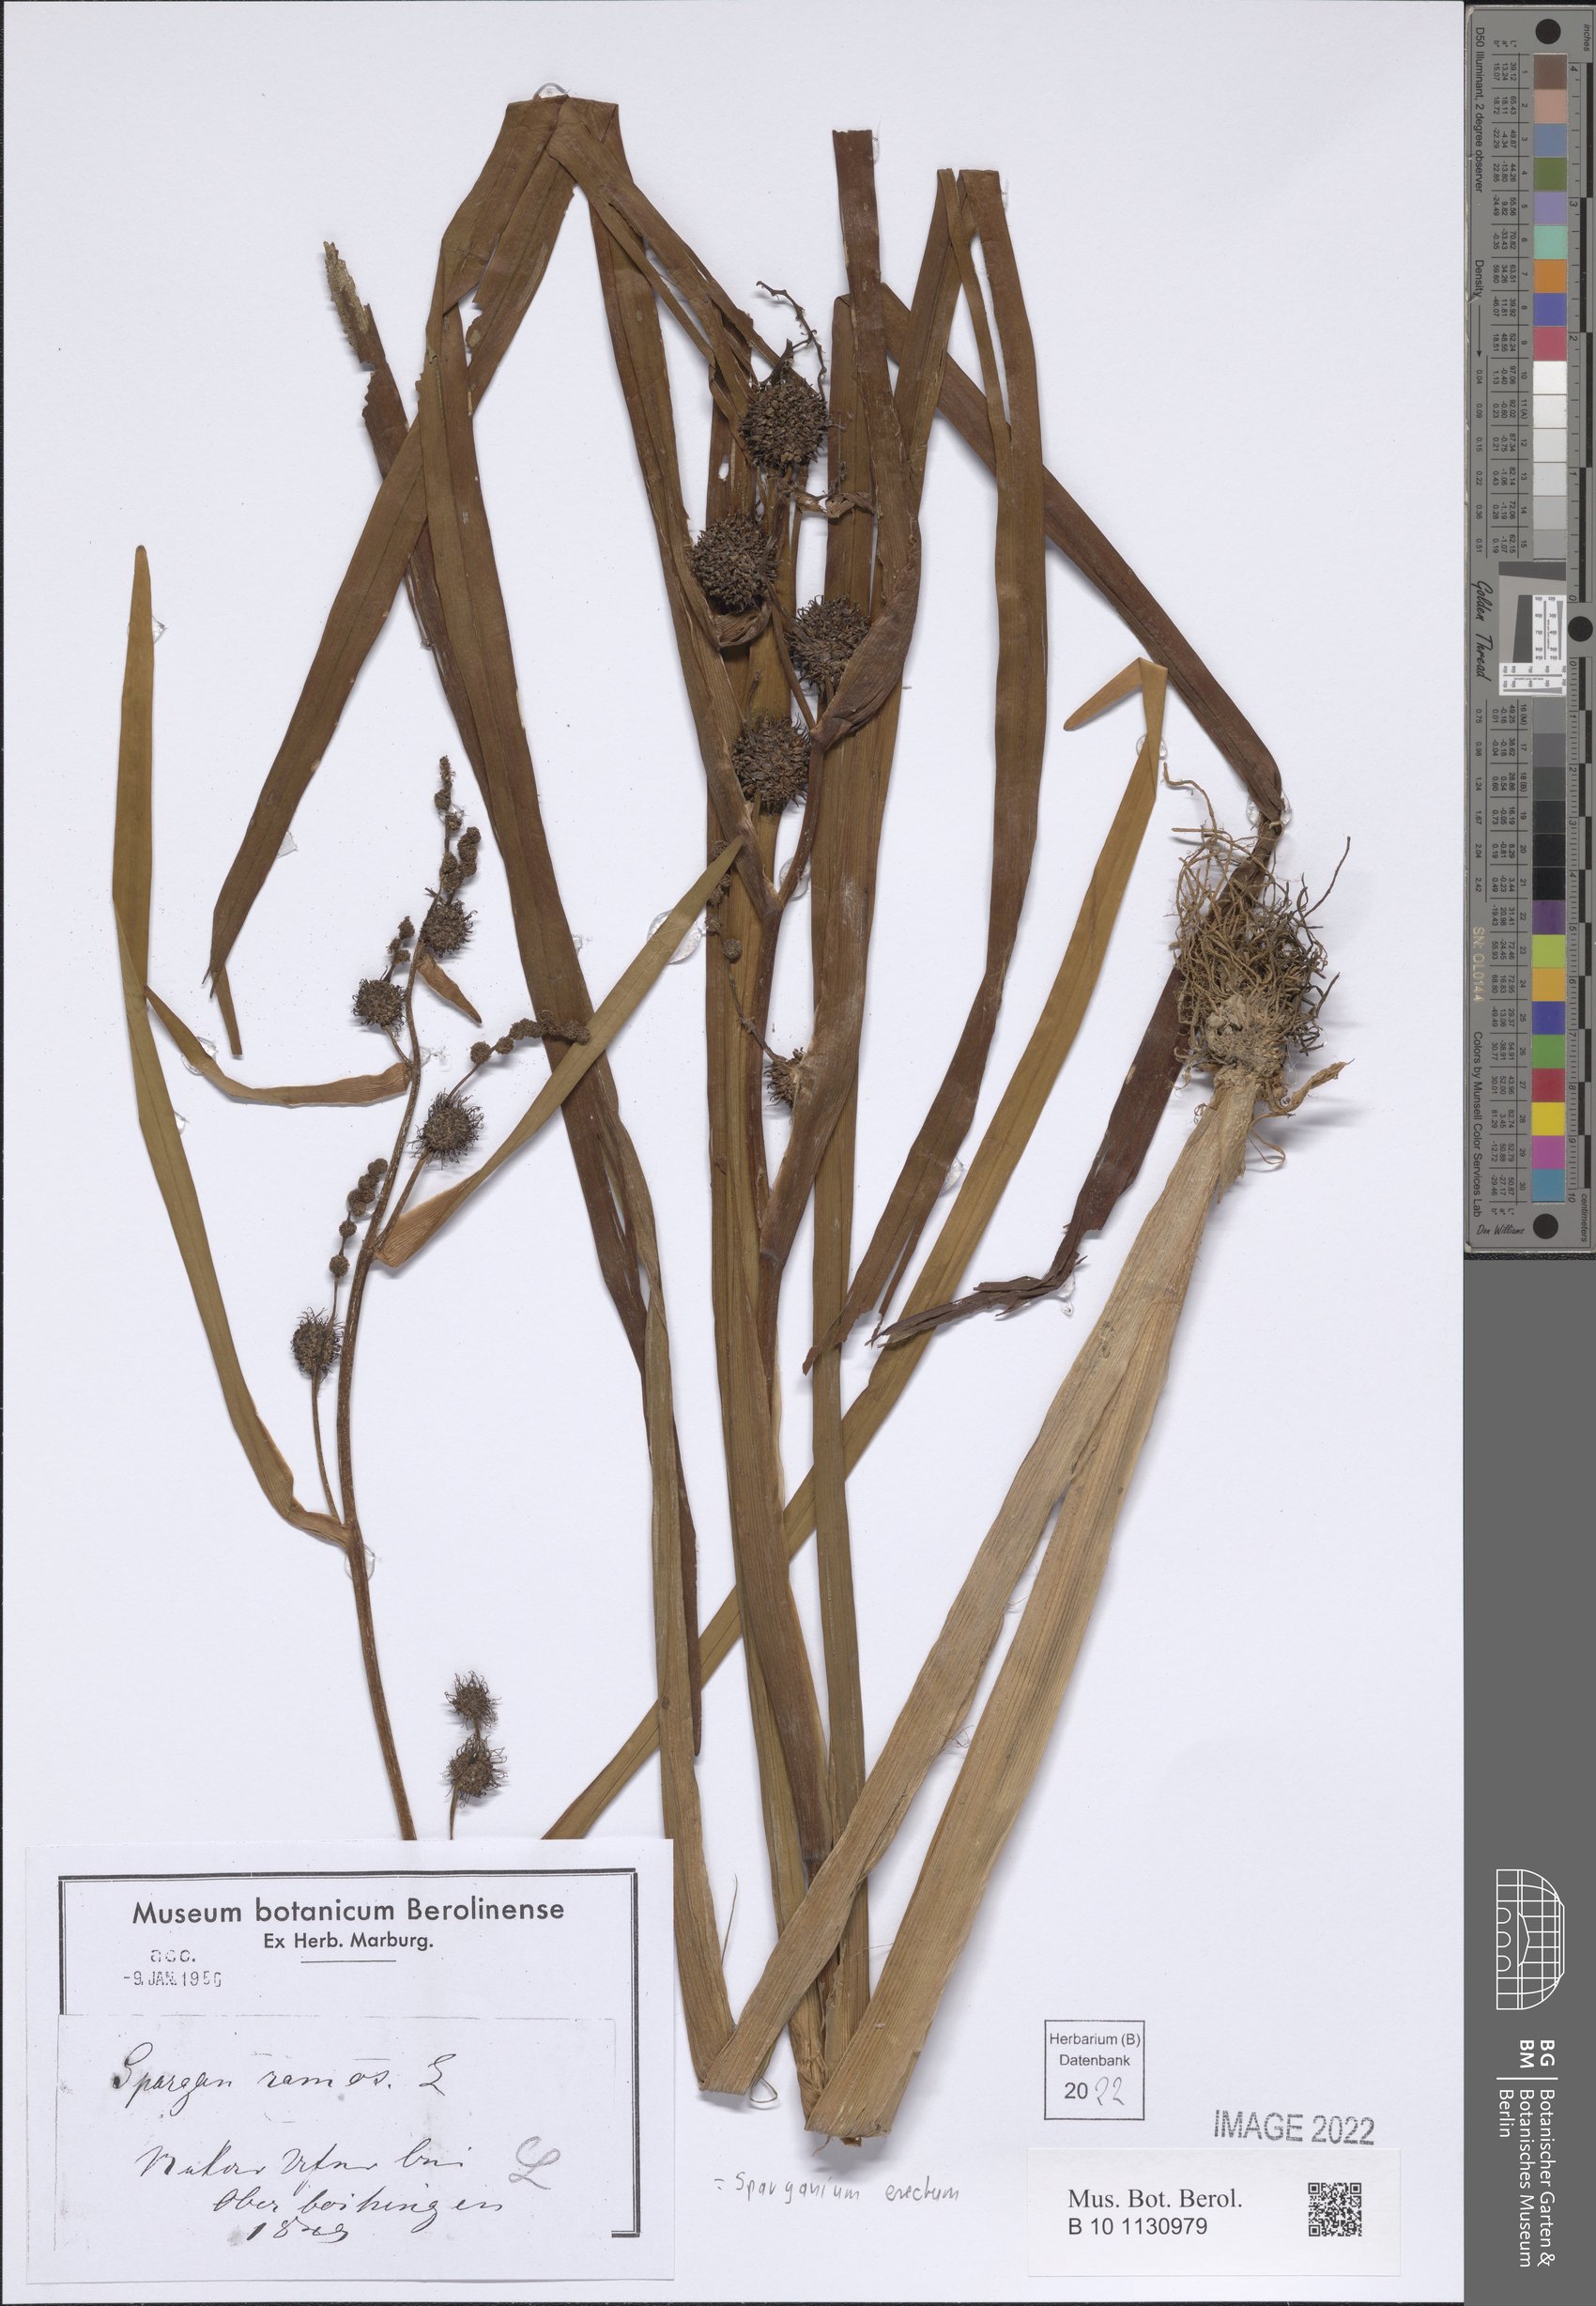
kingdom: Plantae
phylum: Tracheophyta
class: Liliopsida
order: Poales
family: Typhaceae
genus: Sparganium
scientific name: Sparganium erectum
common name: Branched bur-reed
